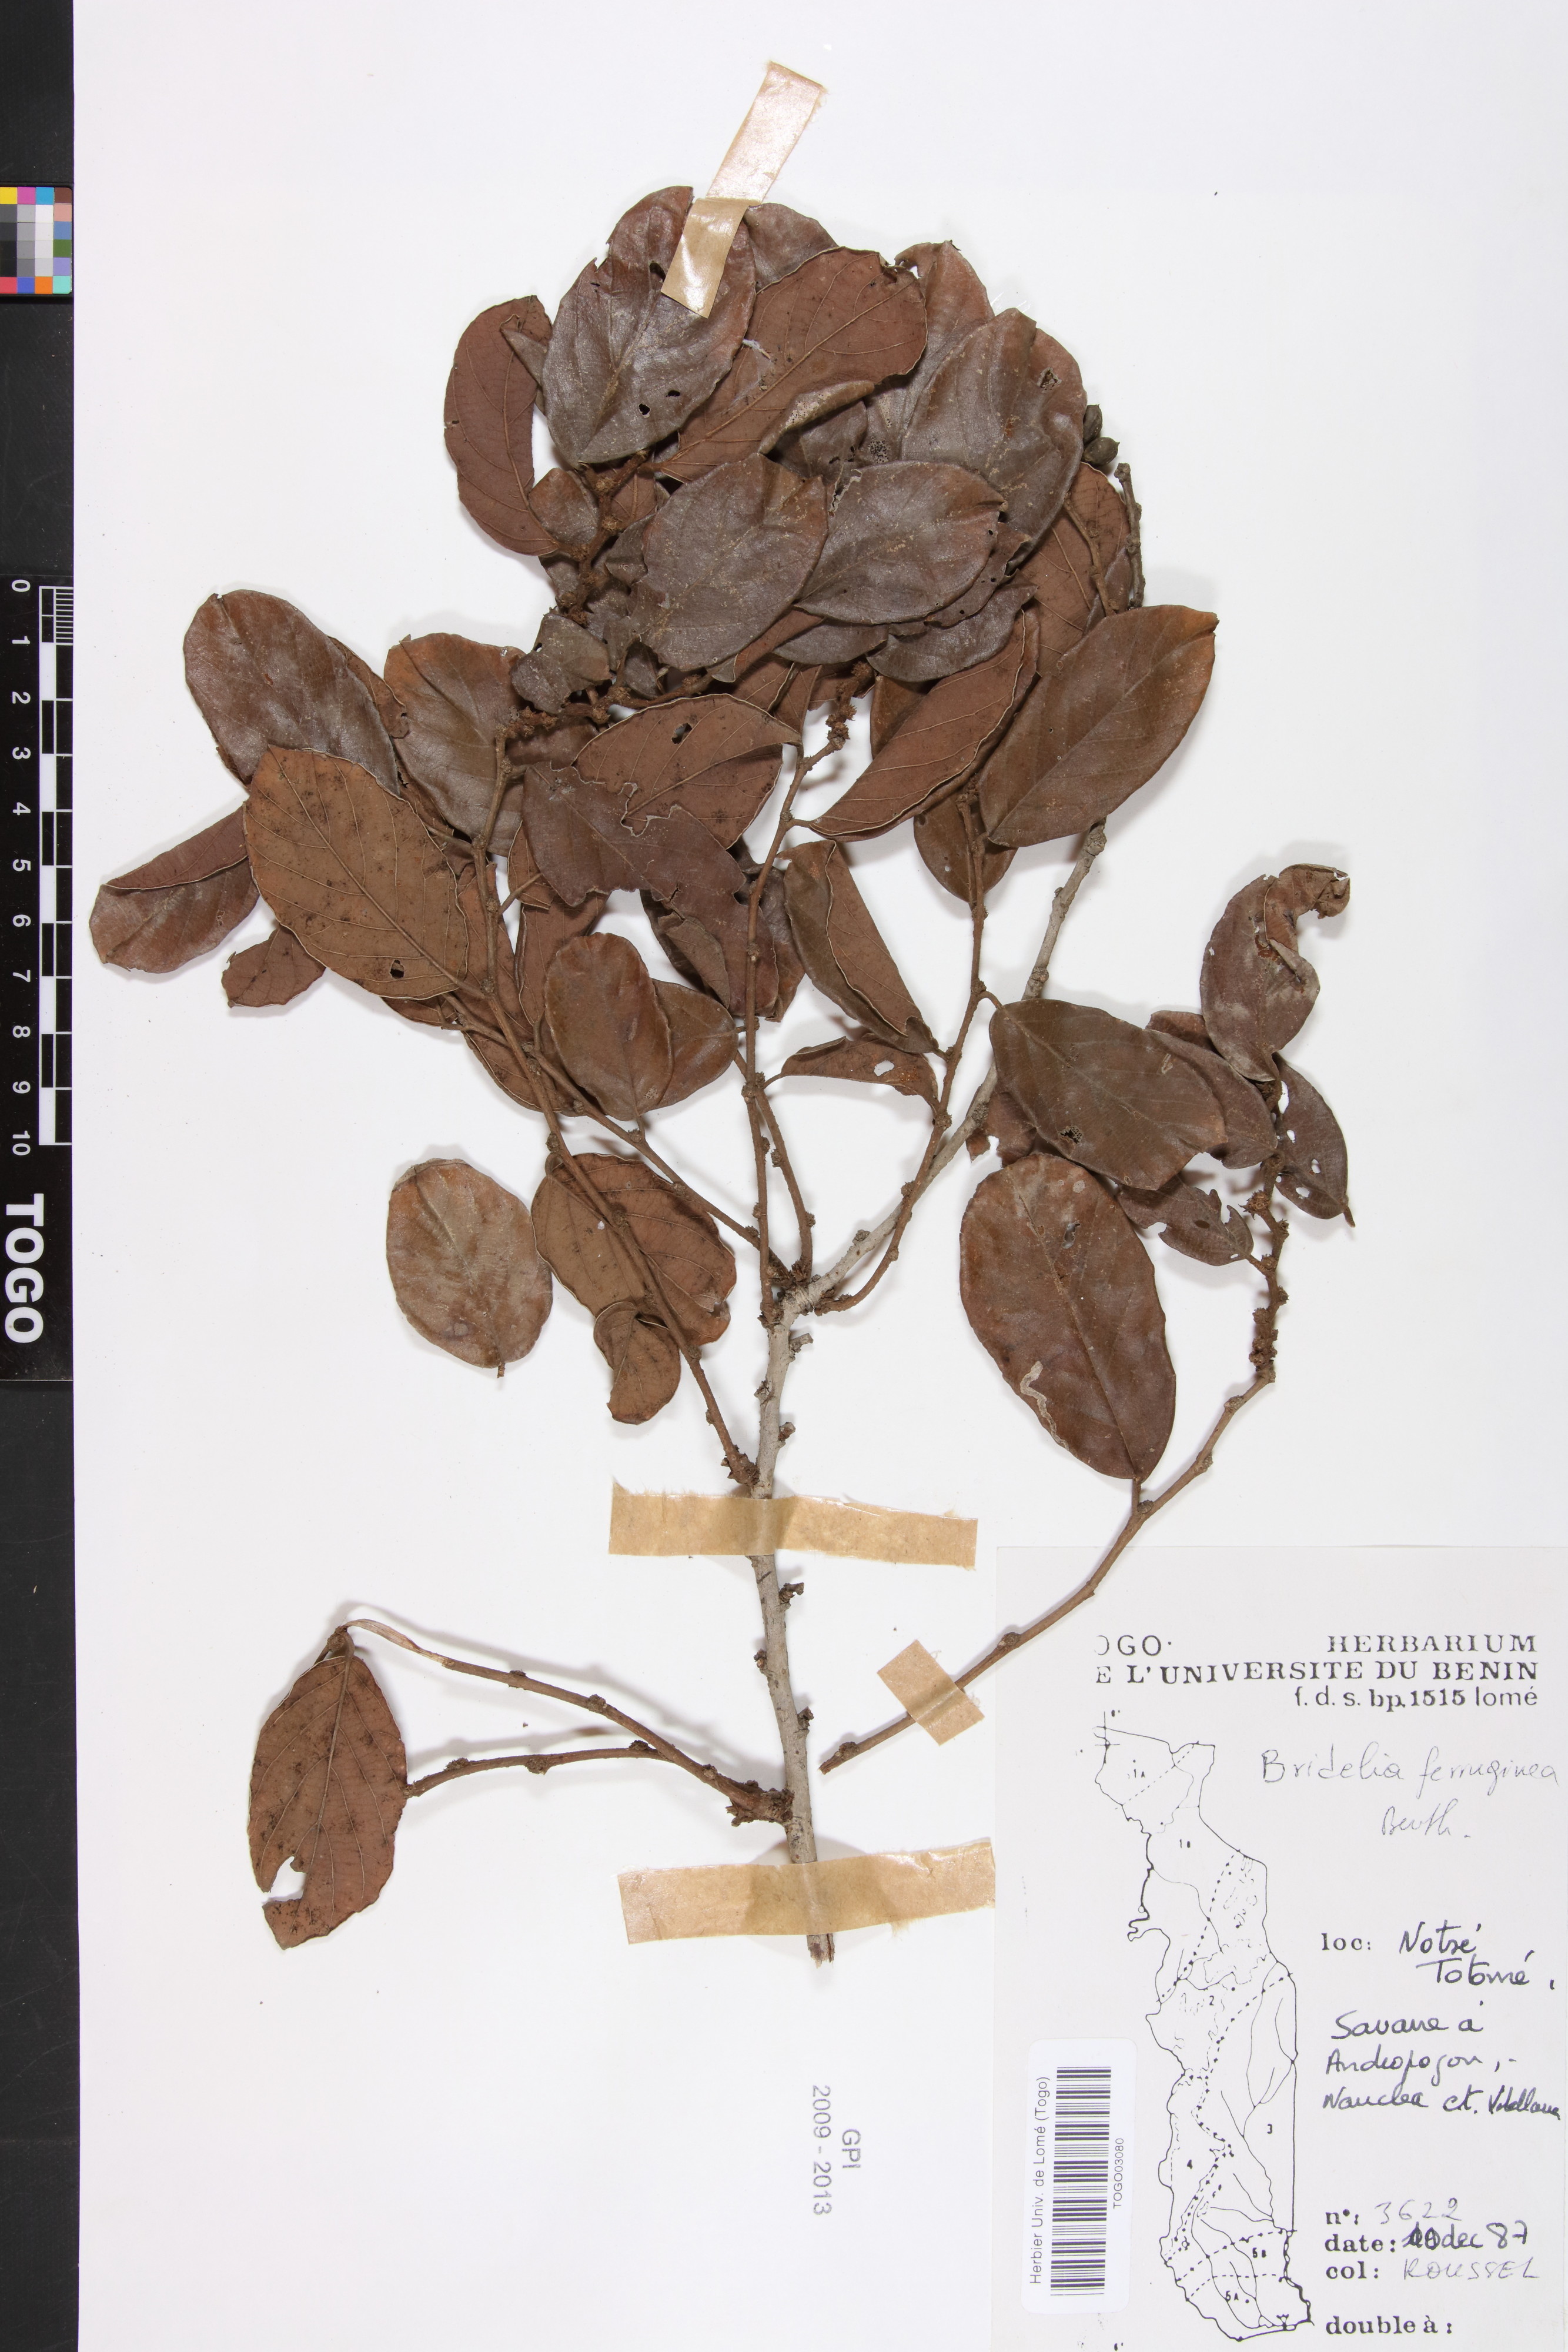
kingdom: Plantae
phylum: Tracheophyta
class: Magnoliopsida
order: Malpighiales
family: Phyllanthaceae
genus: Bridelia
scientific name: Bridelia ferruginea
